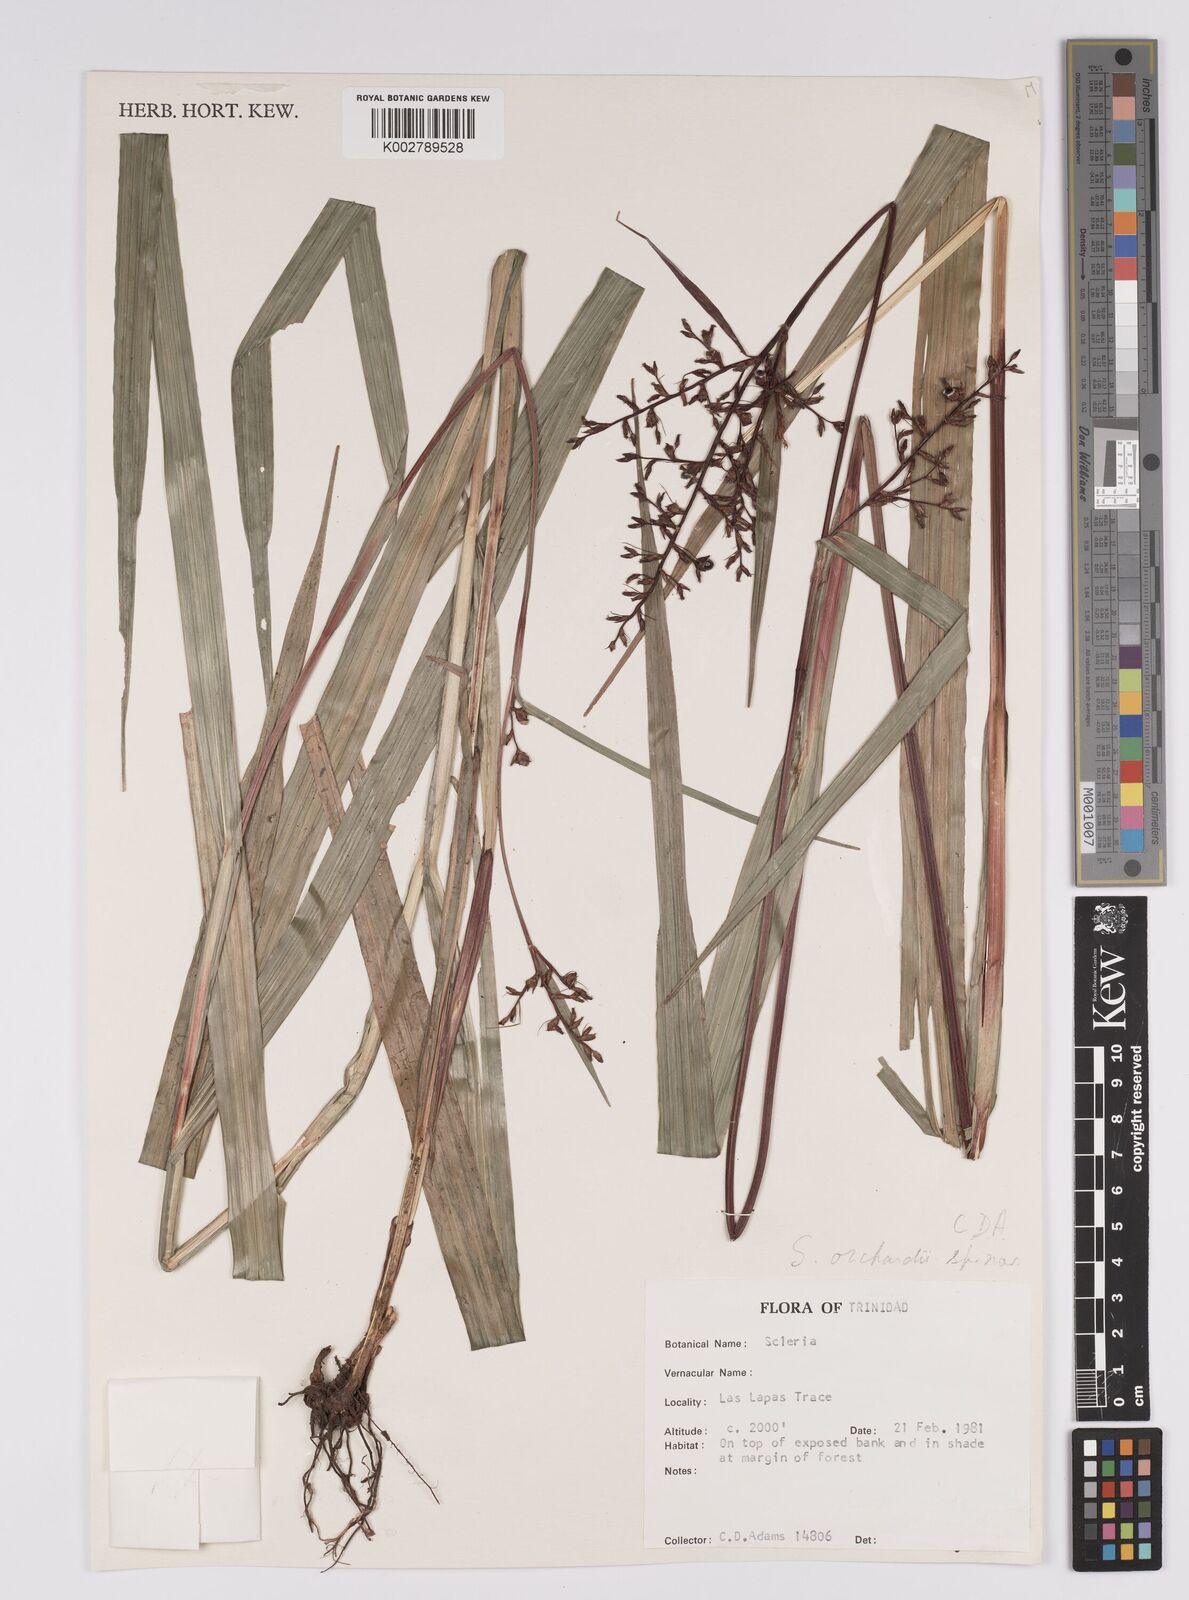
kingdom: Plantae
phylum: Tracheophyta
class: Liliopsida
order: Poales
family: Cyperaceae
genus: Scleria
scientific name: Scleria
